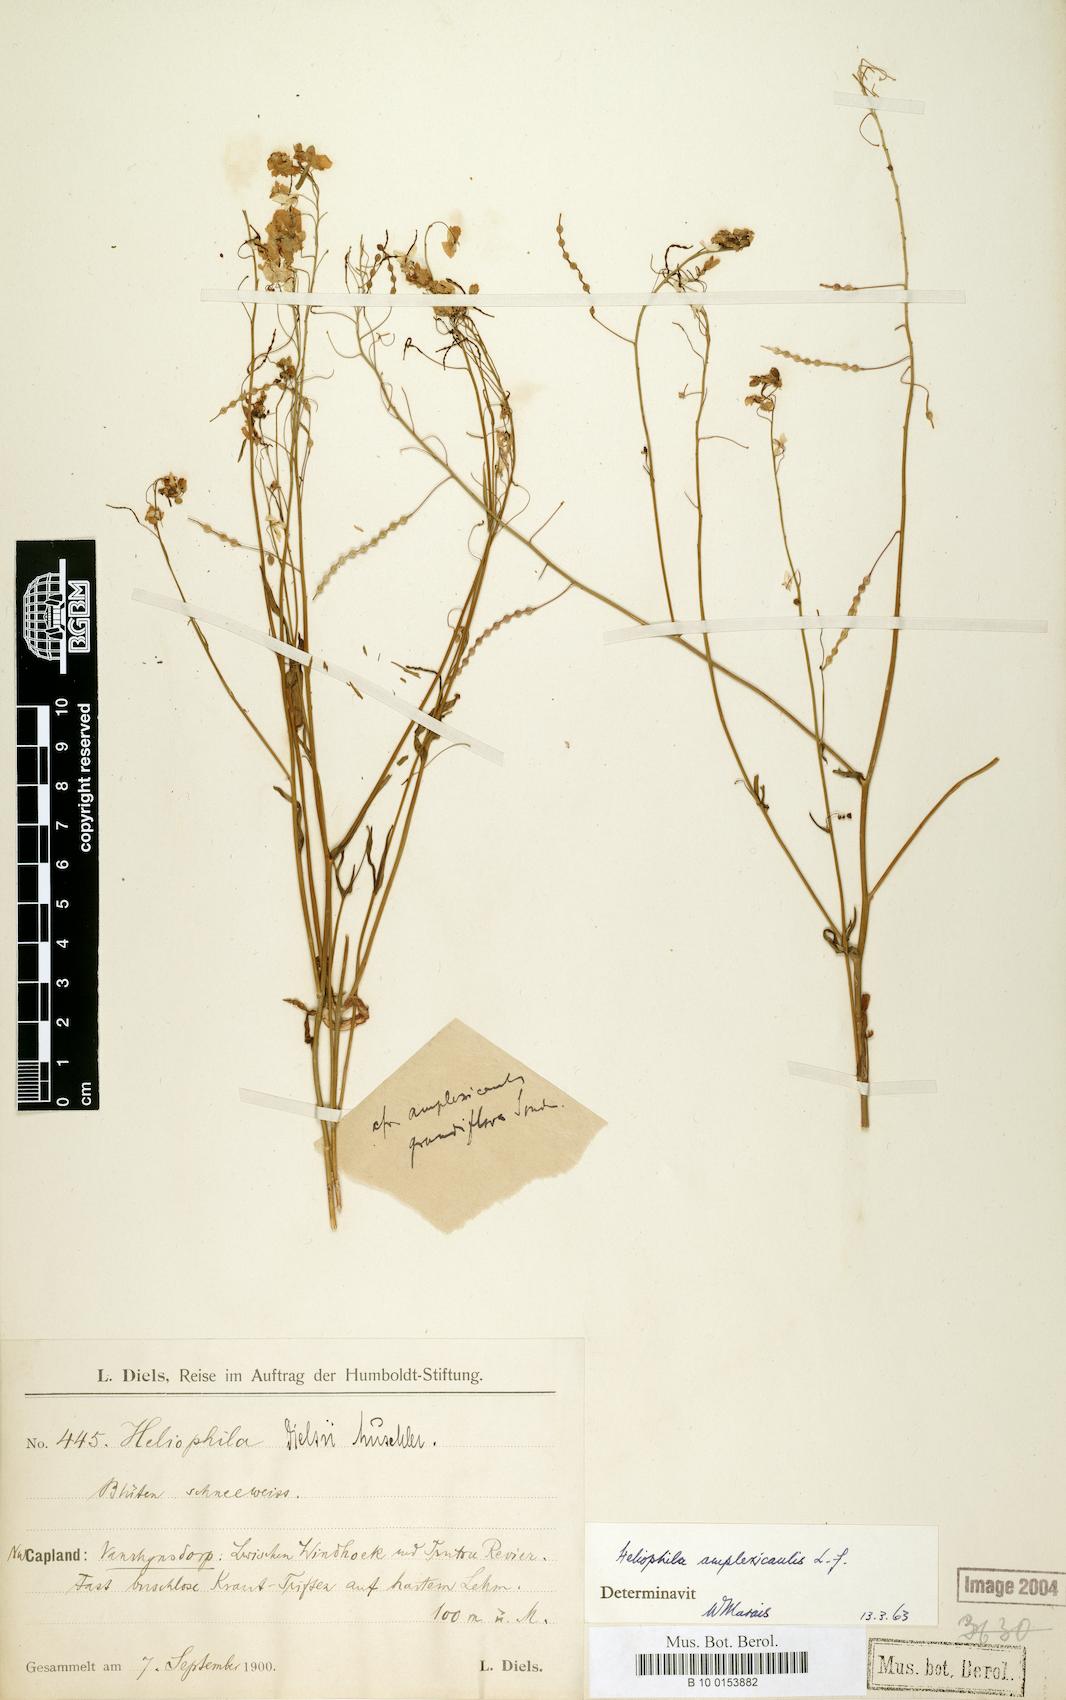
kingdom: Plantae
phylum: Tracheophyta
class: Magnoliopsida
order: Brassicales
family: Brassicaceae
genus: Heliophila
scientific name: Heliophila amplexicaulis
